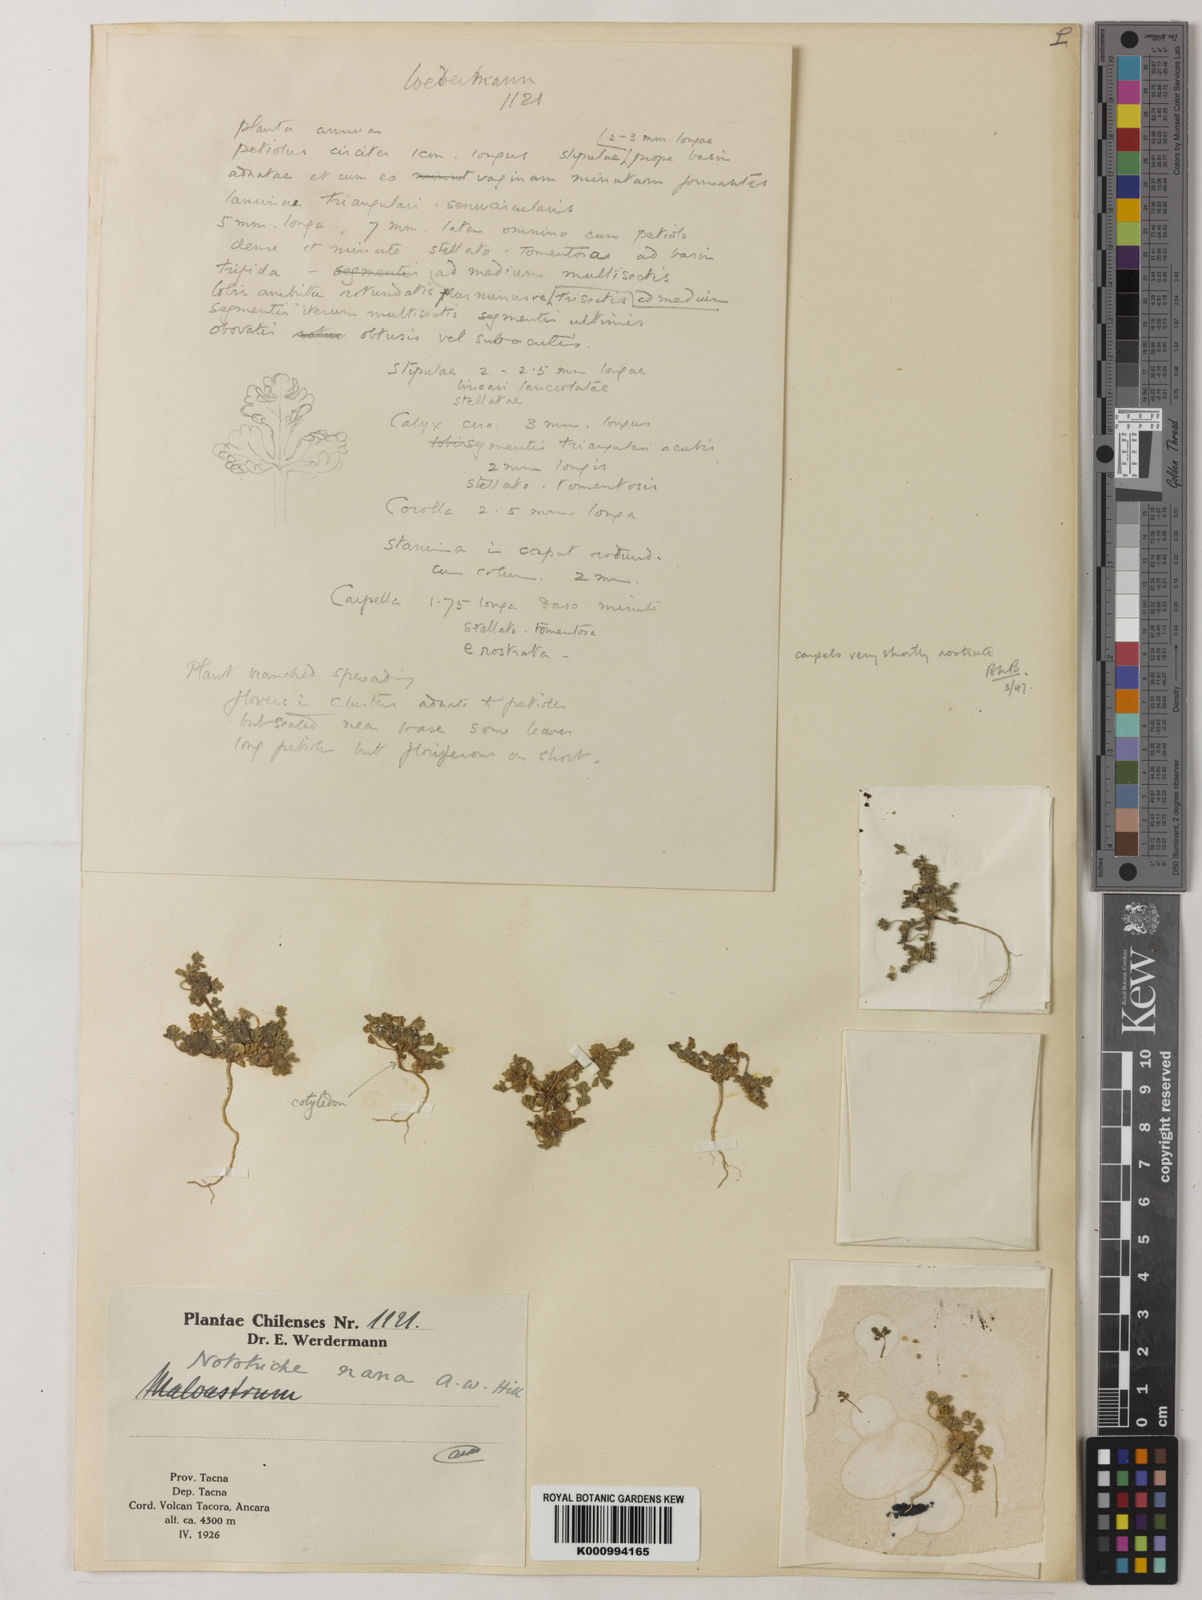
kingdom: Plantae
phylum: Tracheophyta
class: Magnoliopsida
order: Malvales
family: Malvaceae
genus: Nototriche
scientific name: Nototriche nana
